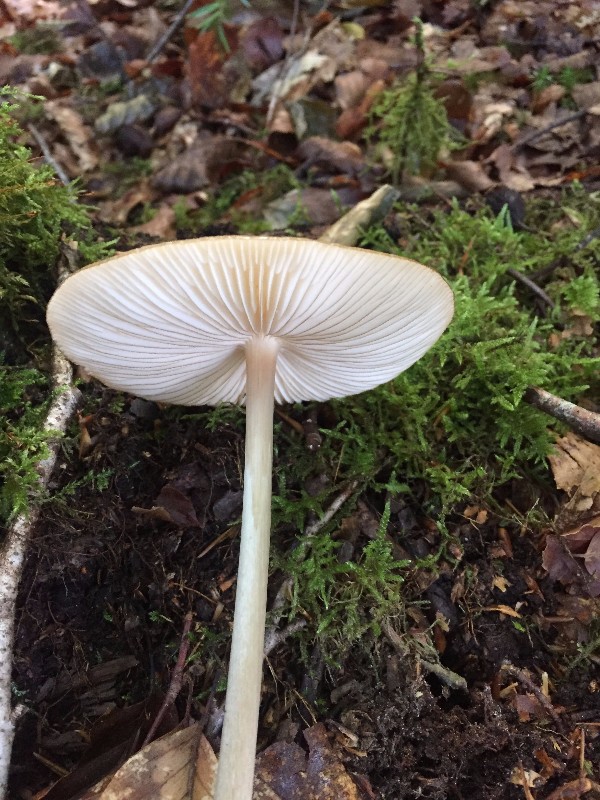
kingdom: Fungi
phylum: Basidiomycota
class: Agaricomycetes
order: Agaricales
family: Physalacriaceae
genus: Hymenopellis
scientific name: Hymenopellis radicata
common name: almindelig pælerodshat
